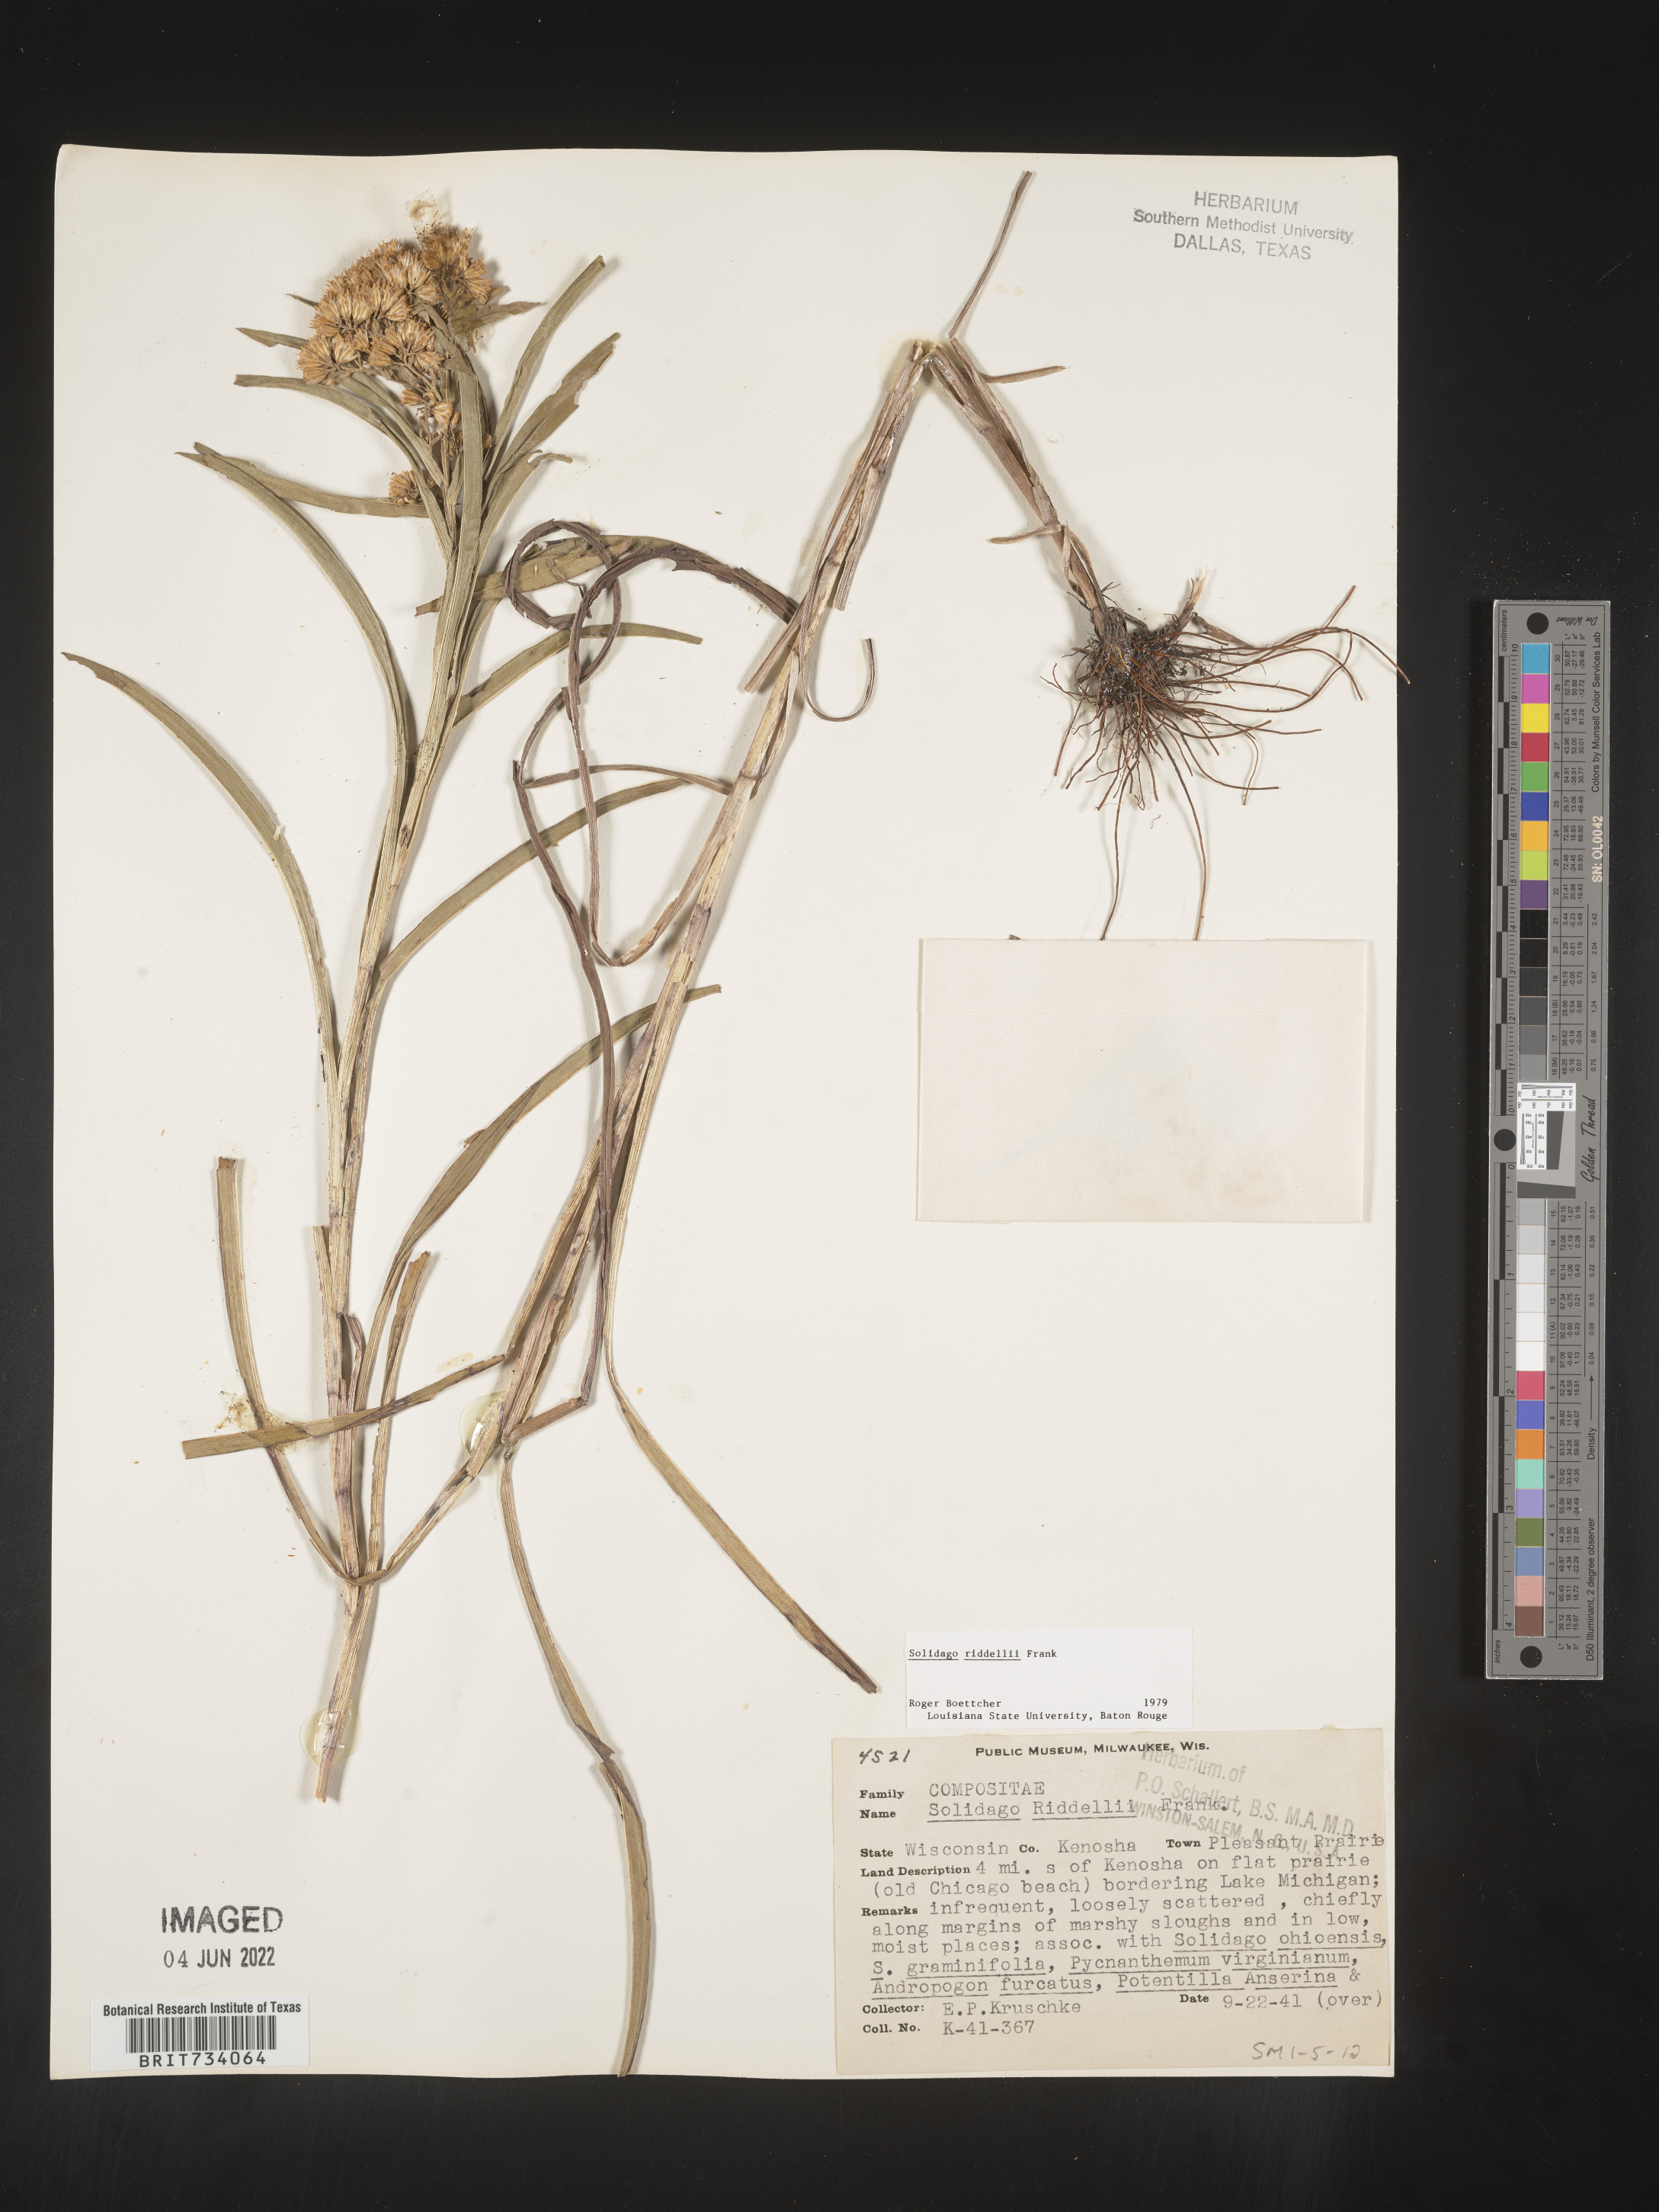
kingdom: Plantae
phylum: Tracheophyta
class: Magnoliopsida
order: Asterales
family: Asteraceae
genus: Solidago
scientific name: Solidago riddellii
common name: Riddell's goldenrod
